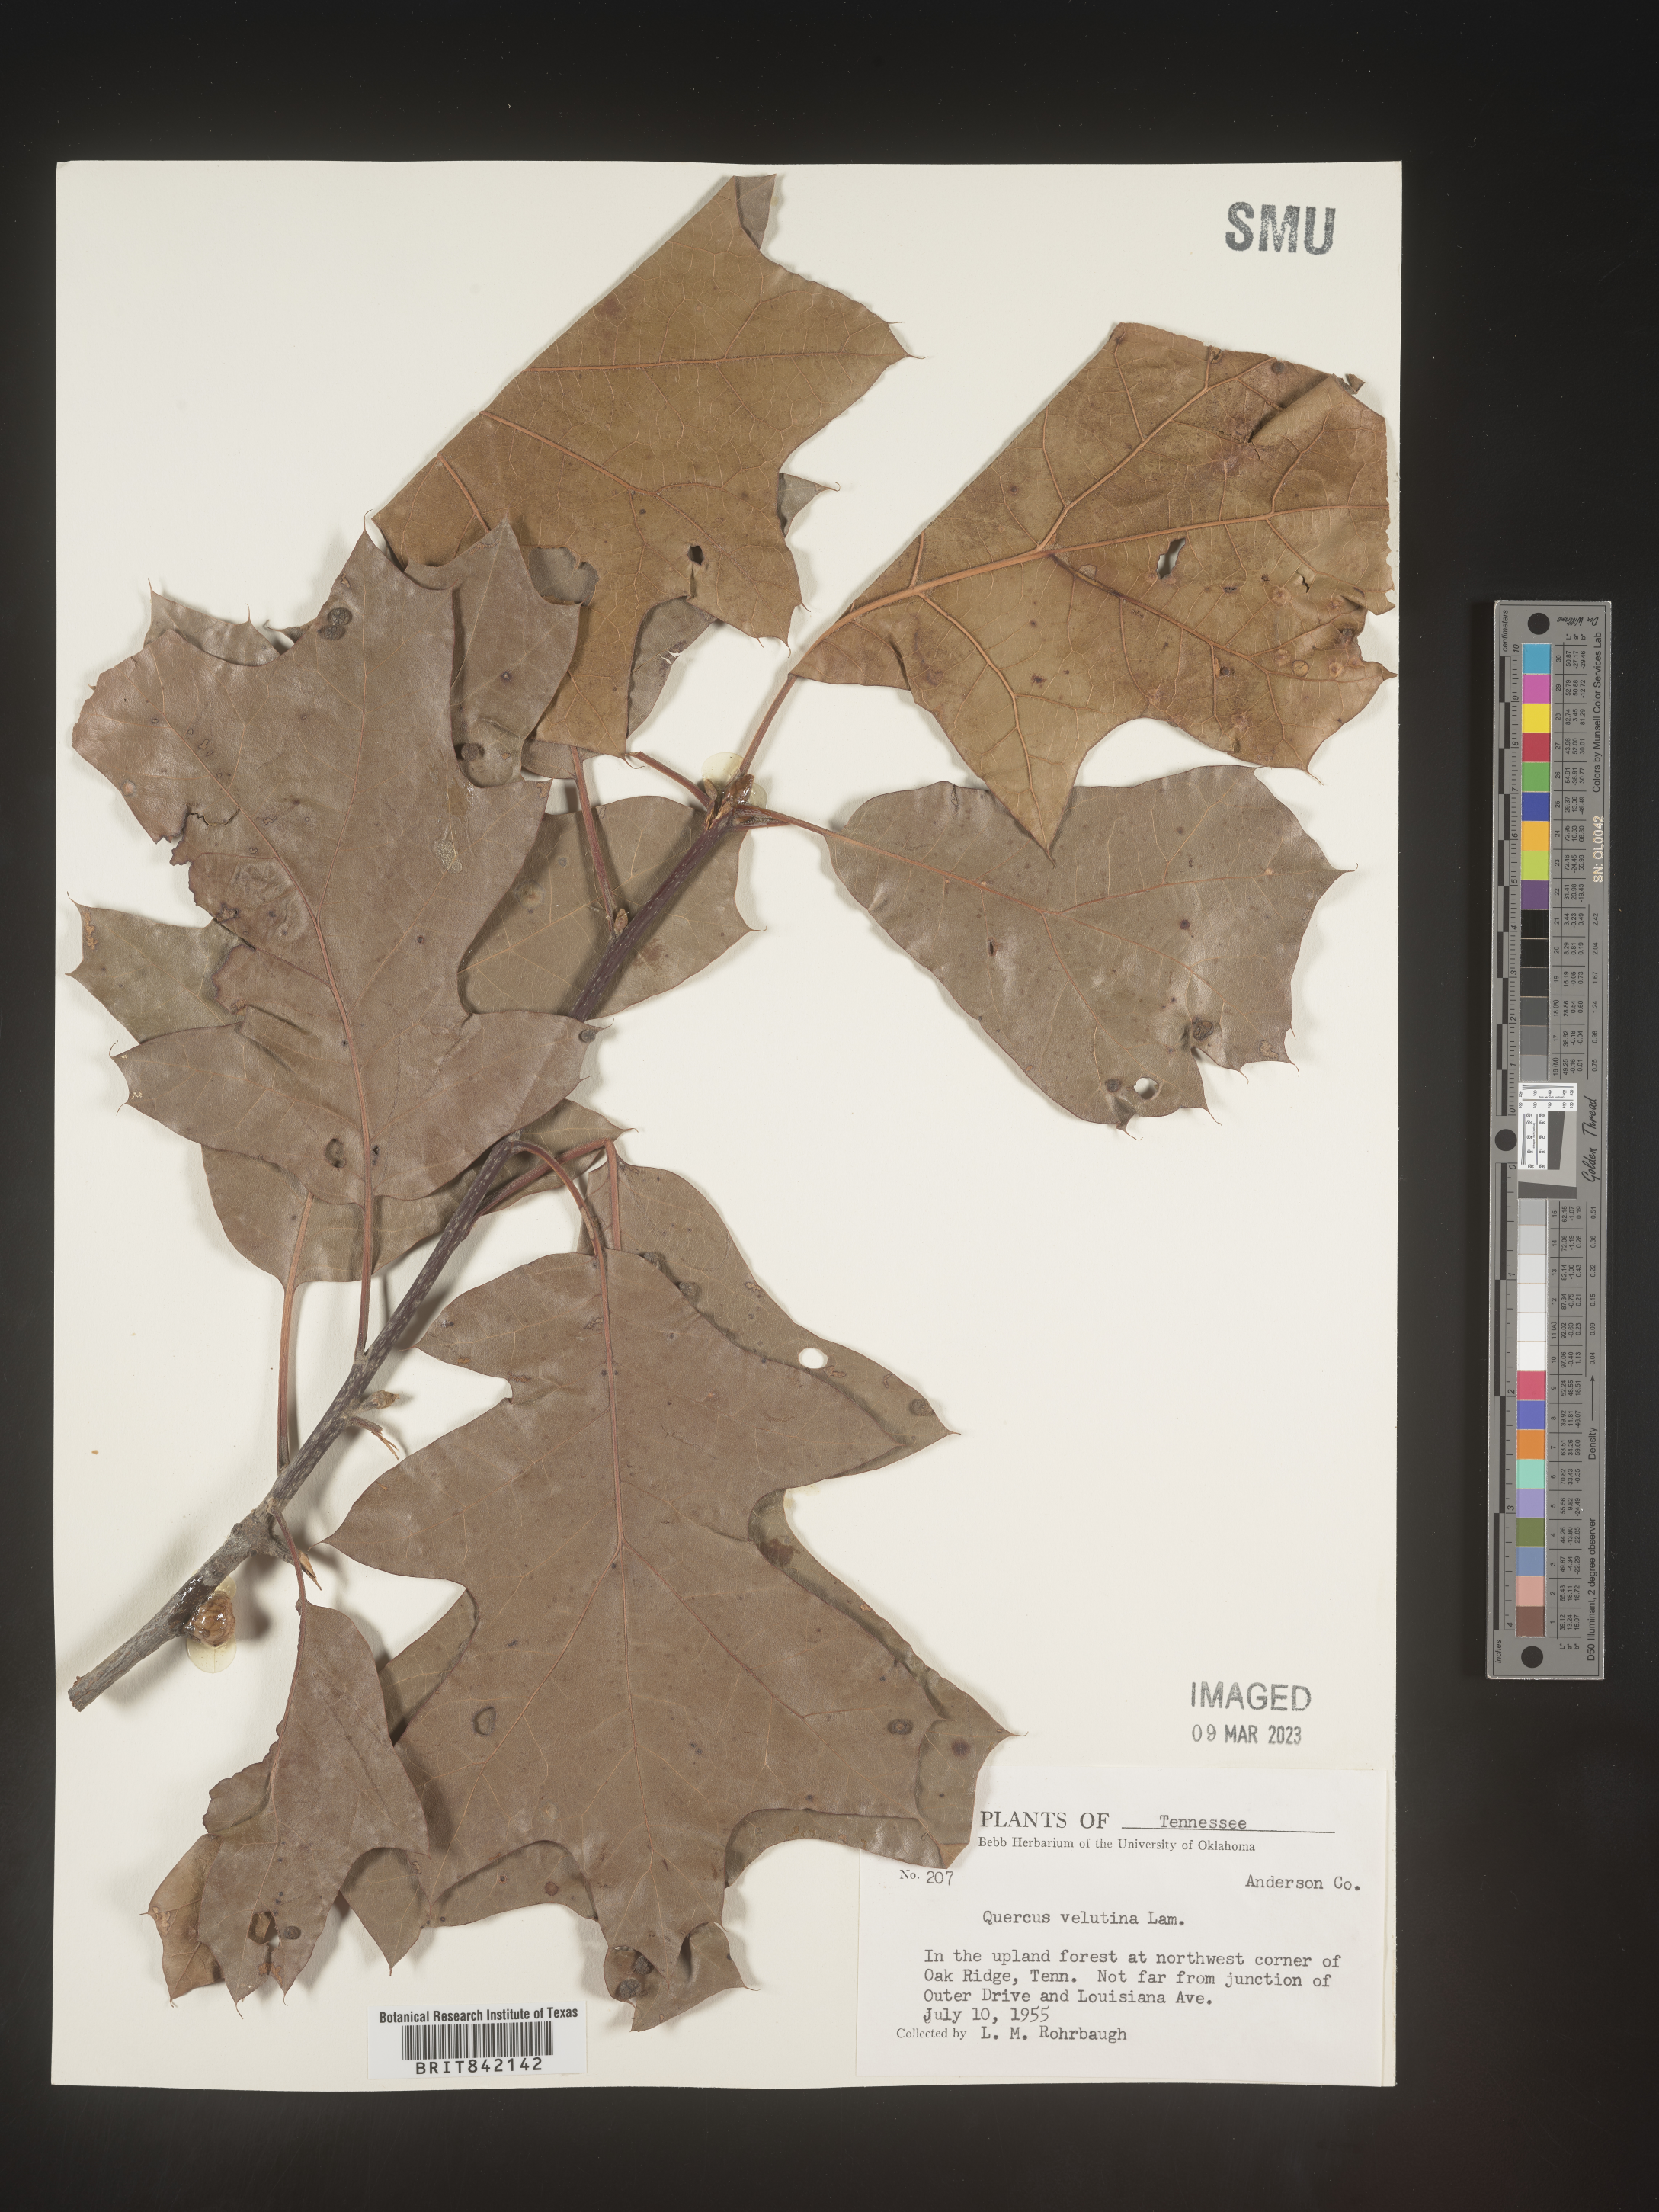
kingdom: Plantae
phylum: Tracheophyta
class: Magnoliopsida
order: Fagales
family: Fagaceae
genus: Quercus
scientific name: Quercus velutina
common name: Black oak
